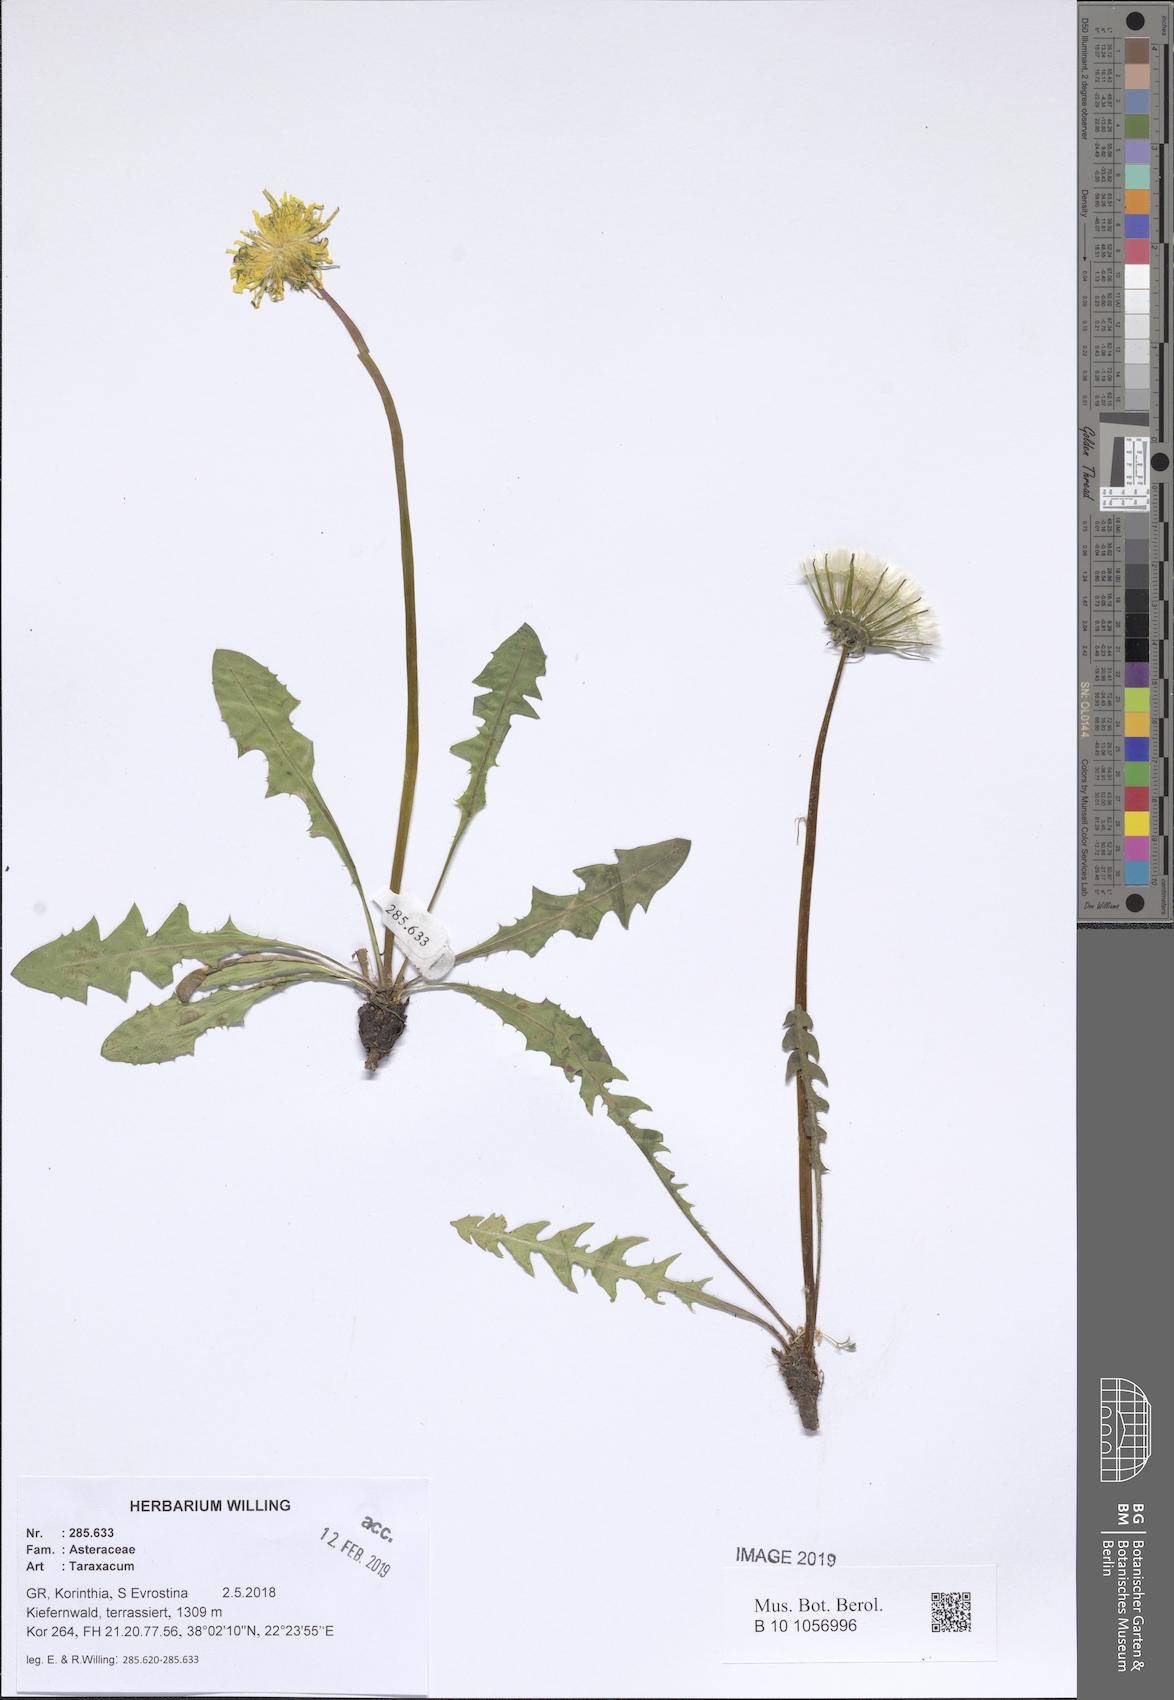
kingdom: Plantae
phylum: Tracheophyta
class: Magnoliopsida
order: Asterales
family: Asteraceae
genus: Taraxacum
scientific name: Taraxacum
